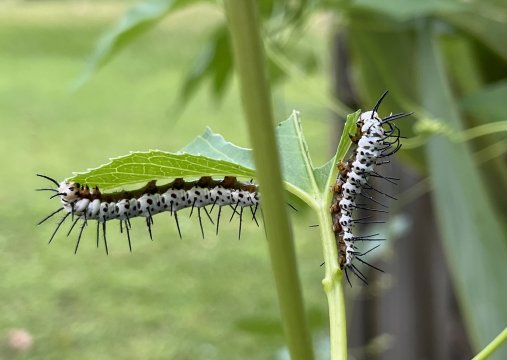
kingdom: Animalia
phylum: Arthropoda
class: Insecta
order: Lepidoptera
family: Nymphalidae
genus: Heliconius
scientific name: Heliconius charithonia
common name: Zebra Longwing
